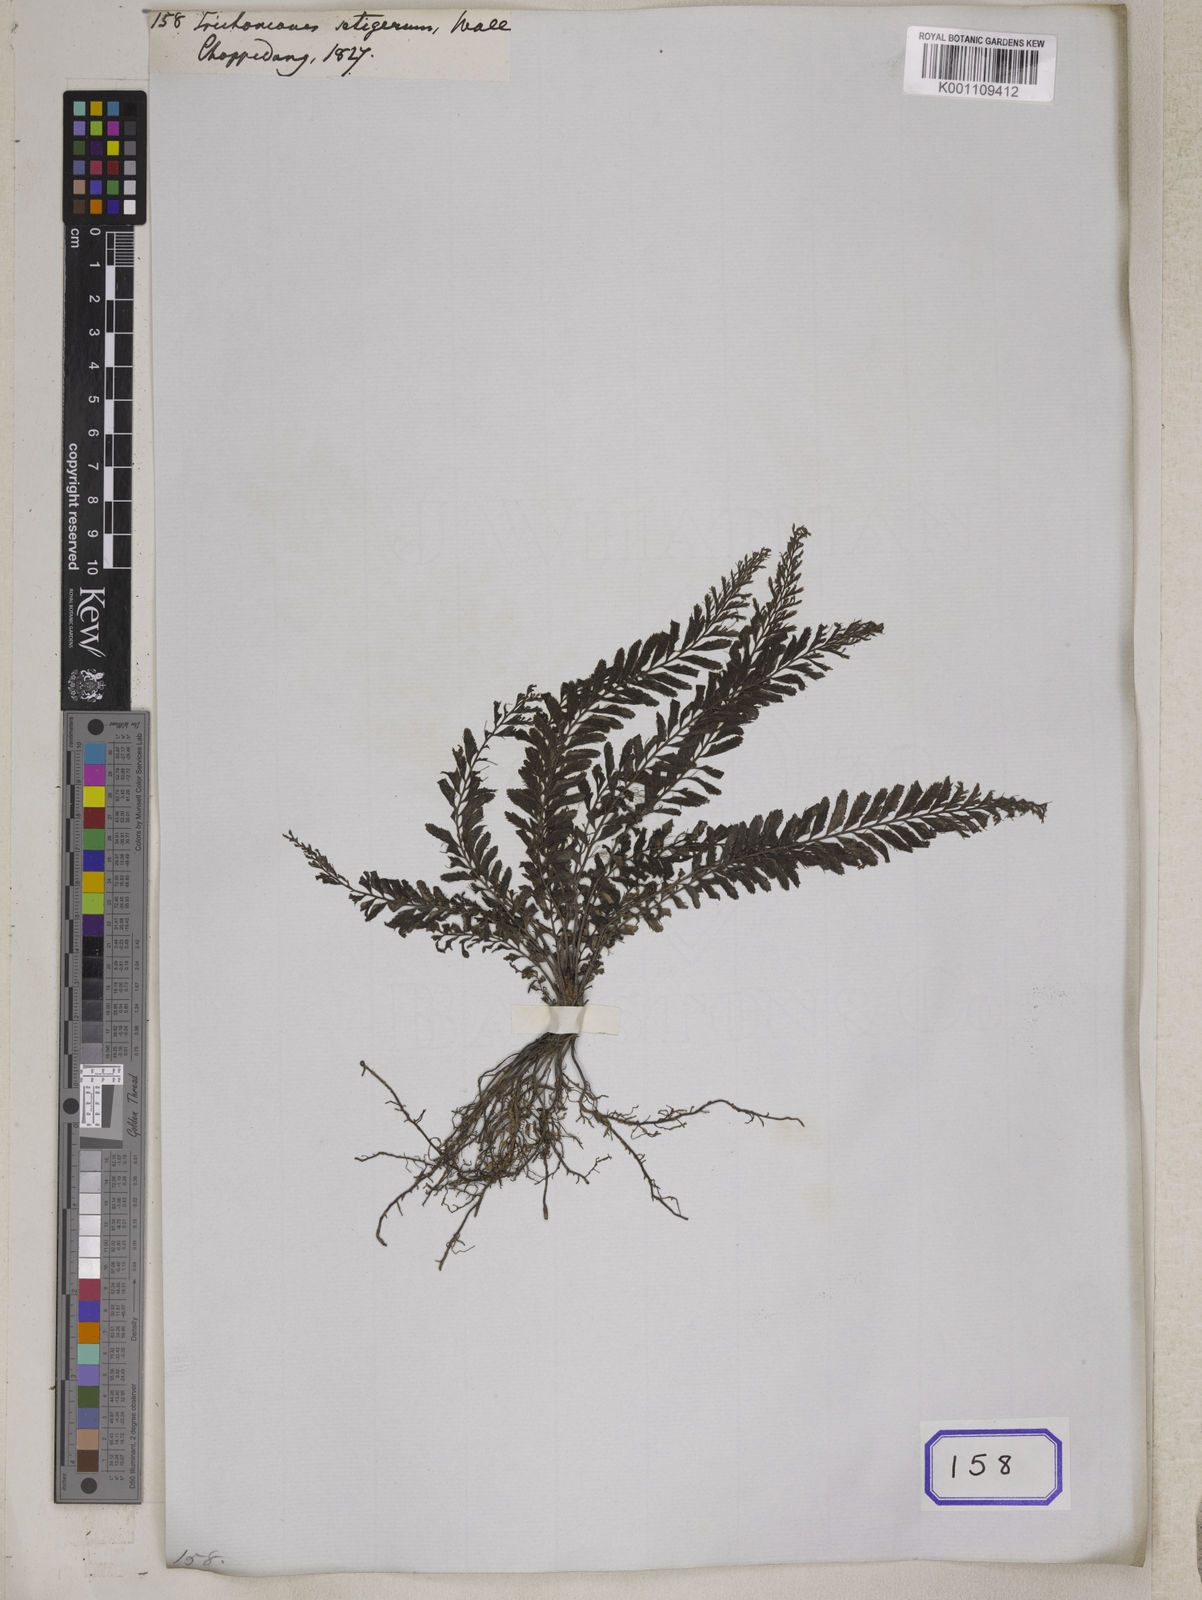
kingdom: Plantae
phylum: Tracheophyta
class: Polypodiopsida
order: Hymenophyllales
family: Hymenophyllaceae
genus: Cephalomanes
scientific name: Cephalomanes javanicum
